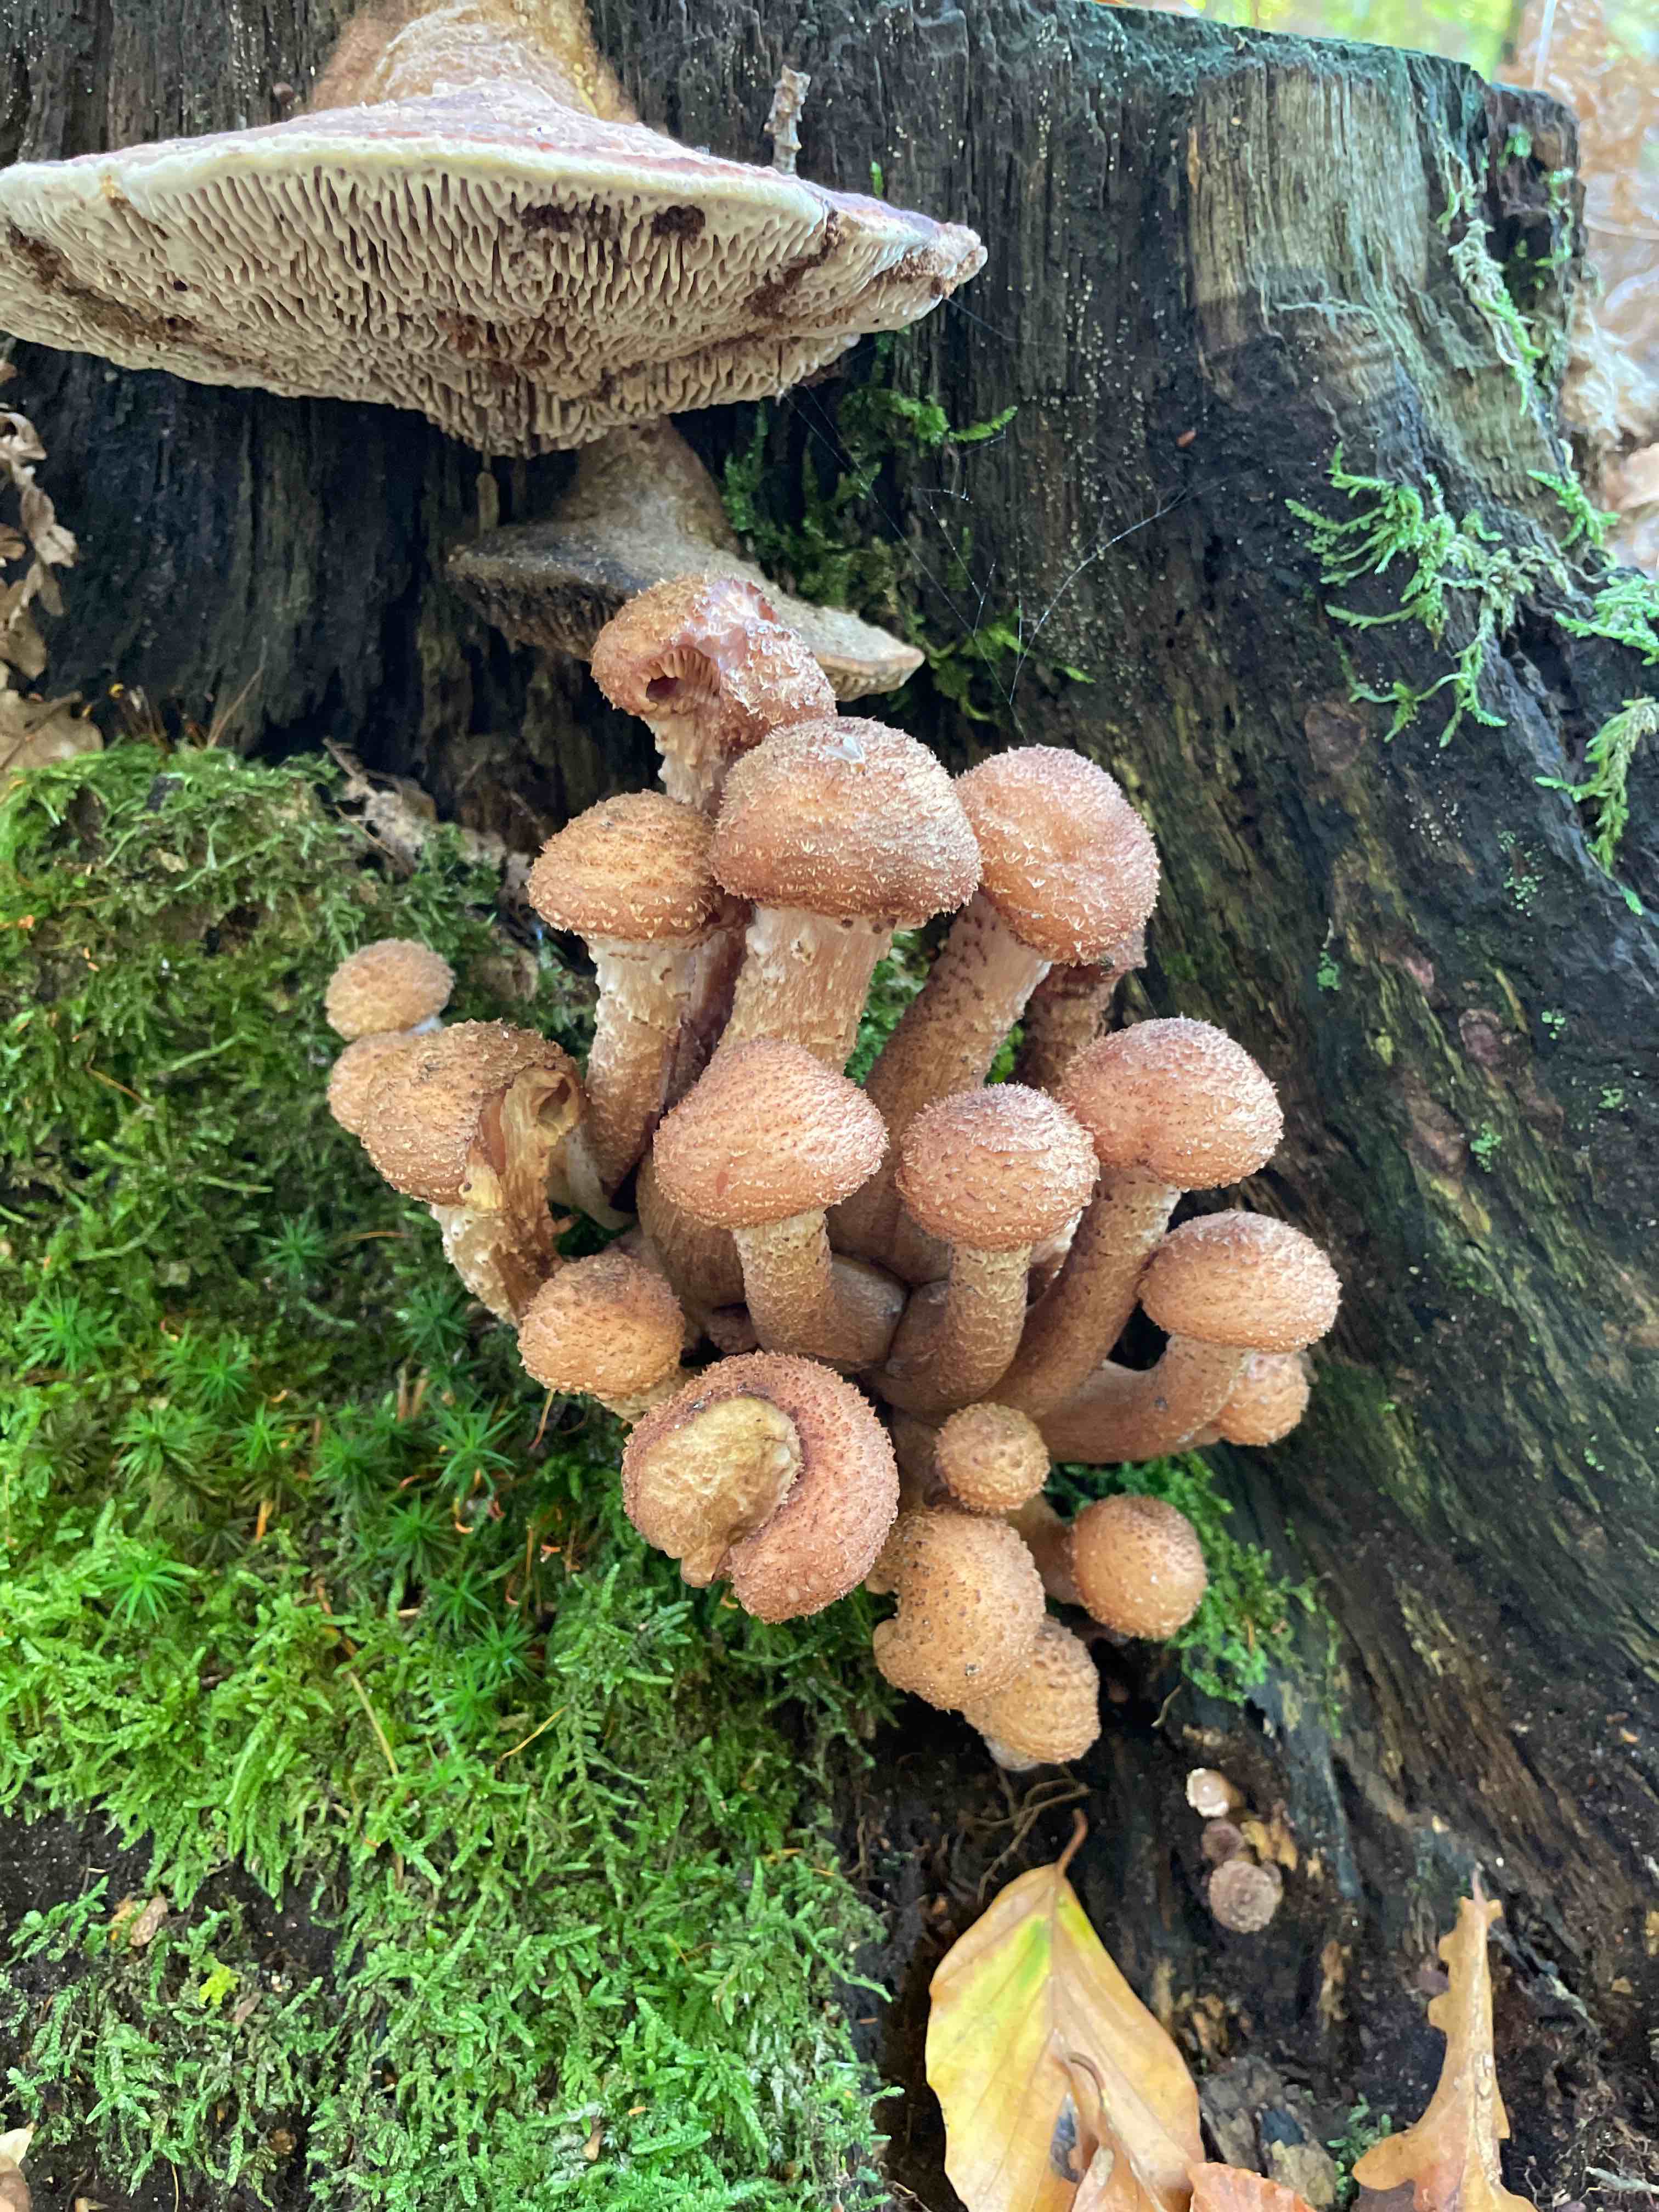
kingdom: Fungi
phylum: Basidiomycota
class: Agaricomycetes
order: Agaricales
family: Physalacriaceae
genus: Armillaria
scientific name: Armillaria
